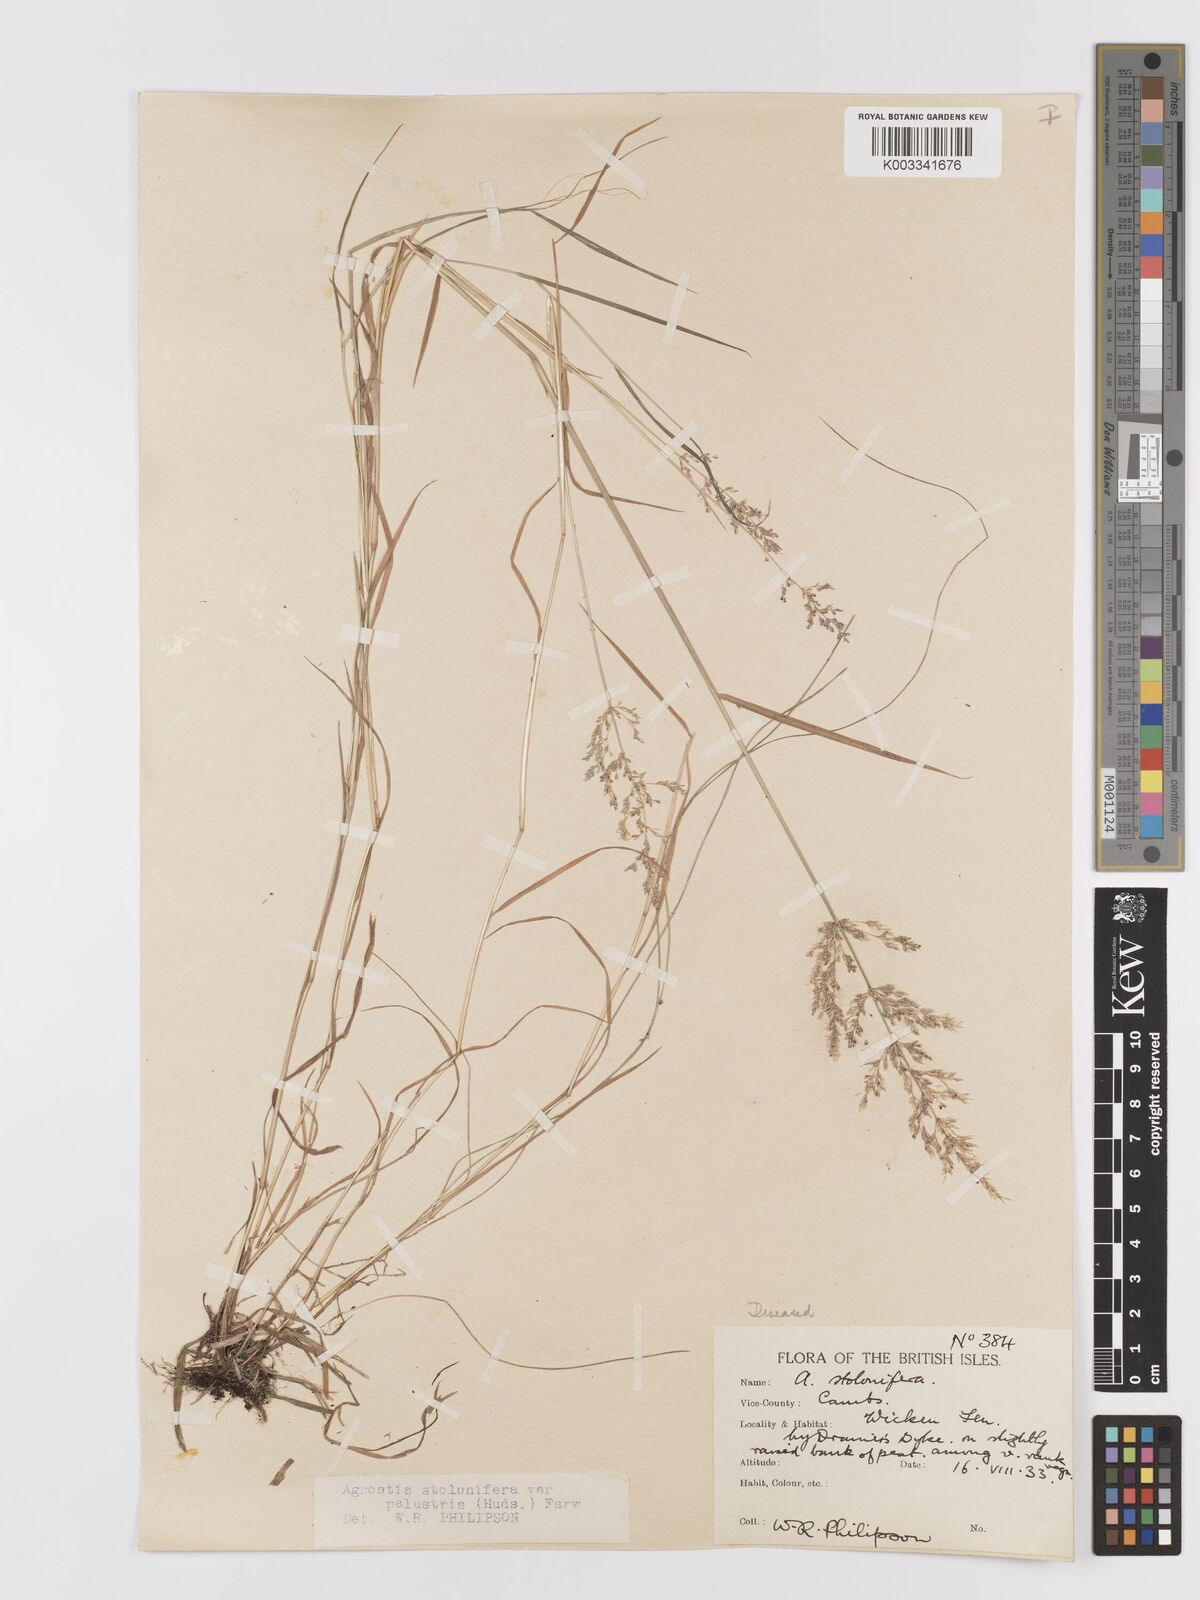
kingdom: Plantae
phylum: Tracheophyta
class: Liliopsida
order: Poales
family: Poaceae
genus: Agrostis
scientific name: Agrostis stolonifera
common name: Creeping bentgrass
